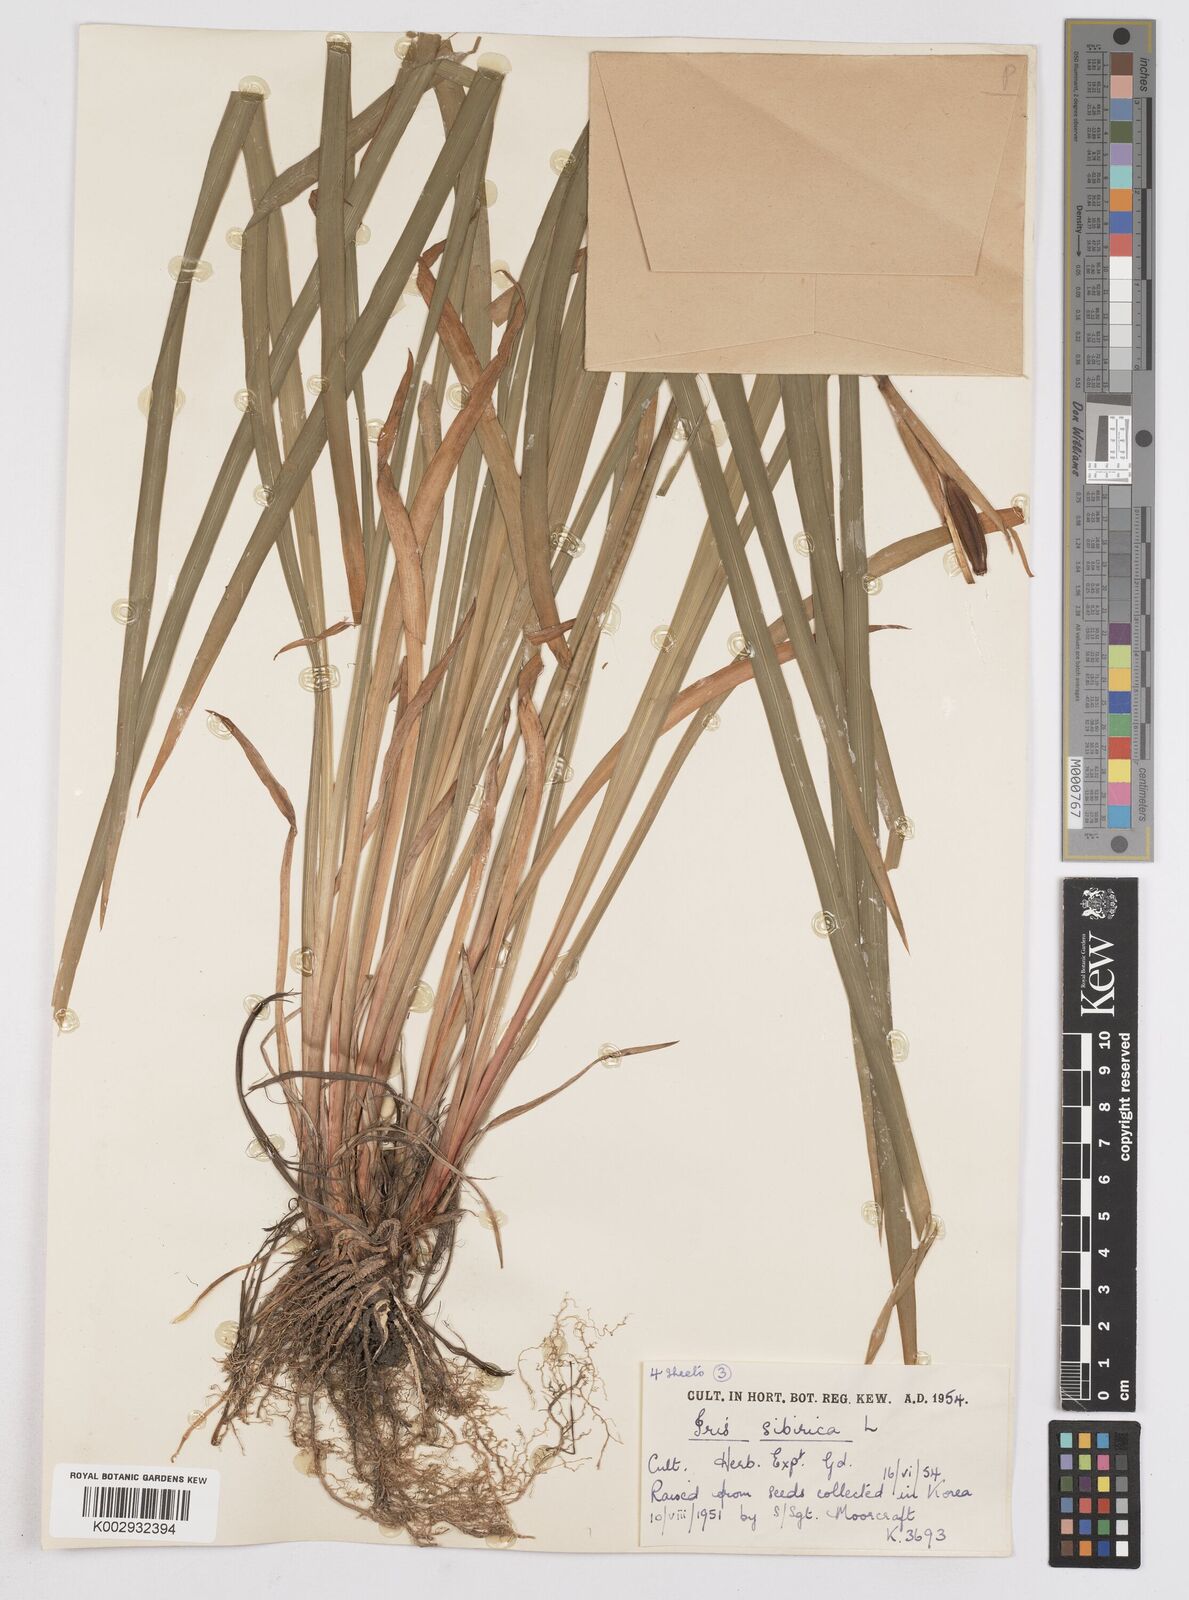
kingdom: Plantae
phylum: Tracheophyta
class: Liliopsida
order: Asparagales
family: Iridaceae
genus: Iris
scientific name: Iris sibirica
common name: Siberian iris
